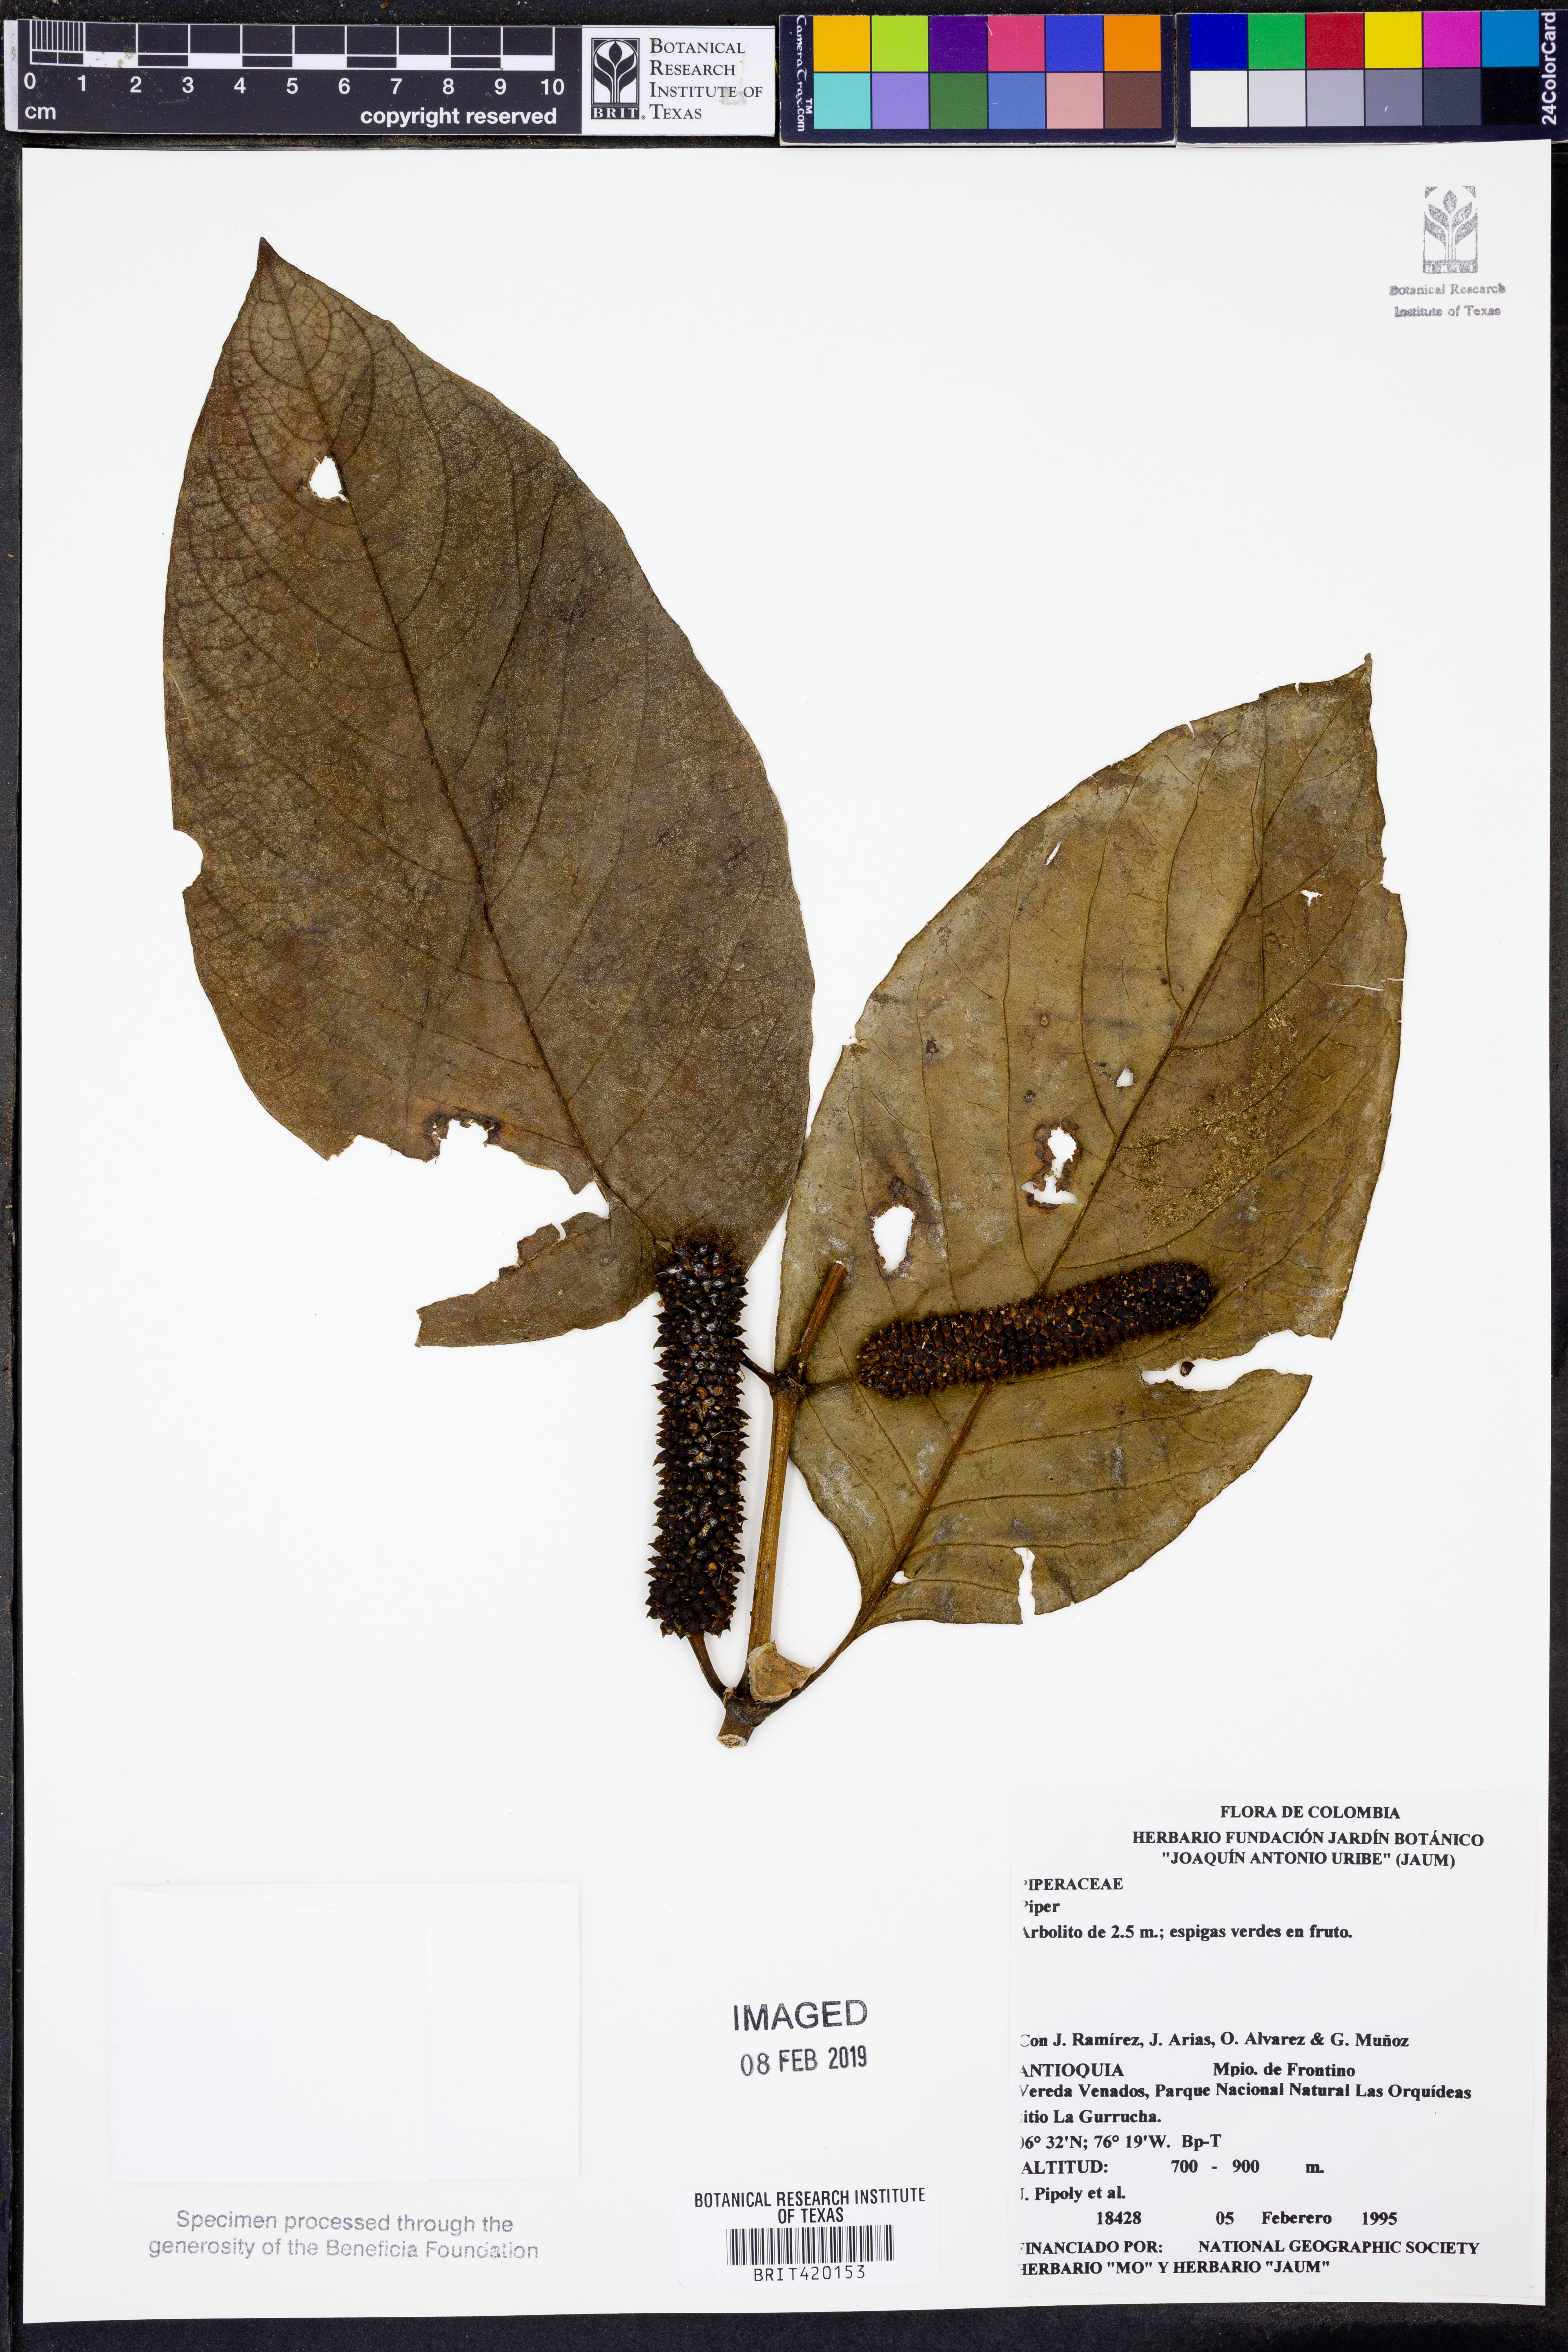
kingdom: Plantae
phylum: Tracheophyta
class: Magnoliopsida
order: Piperales
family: Piperaceae
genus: Piper
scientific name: Piper
